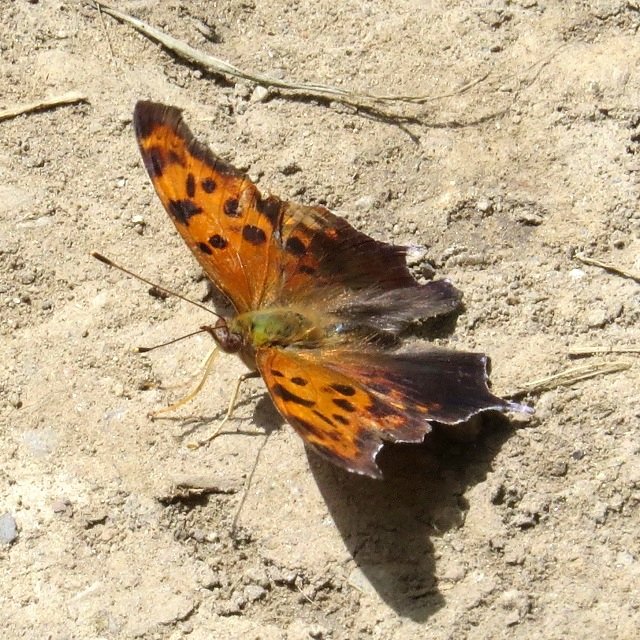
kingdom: Animalia
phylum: Arthropoda
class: Insecta
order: Lepidoptera
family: Nymphalidae
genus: Polygonia
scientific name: Polygonia interrogationis
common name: Question Mark
